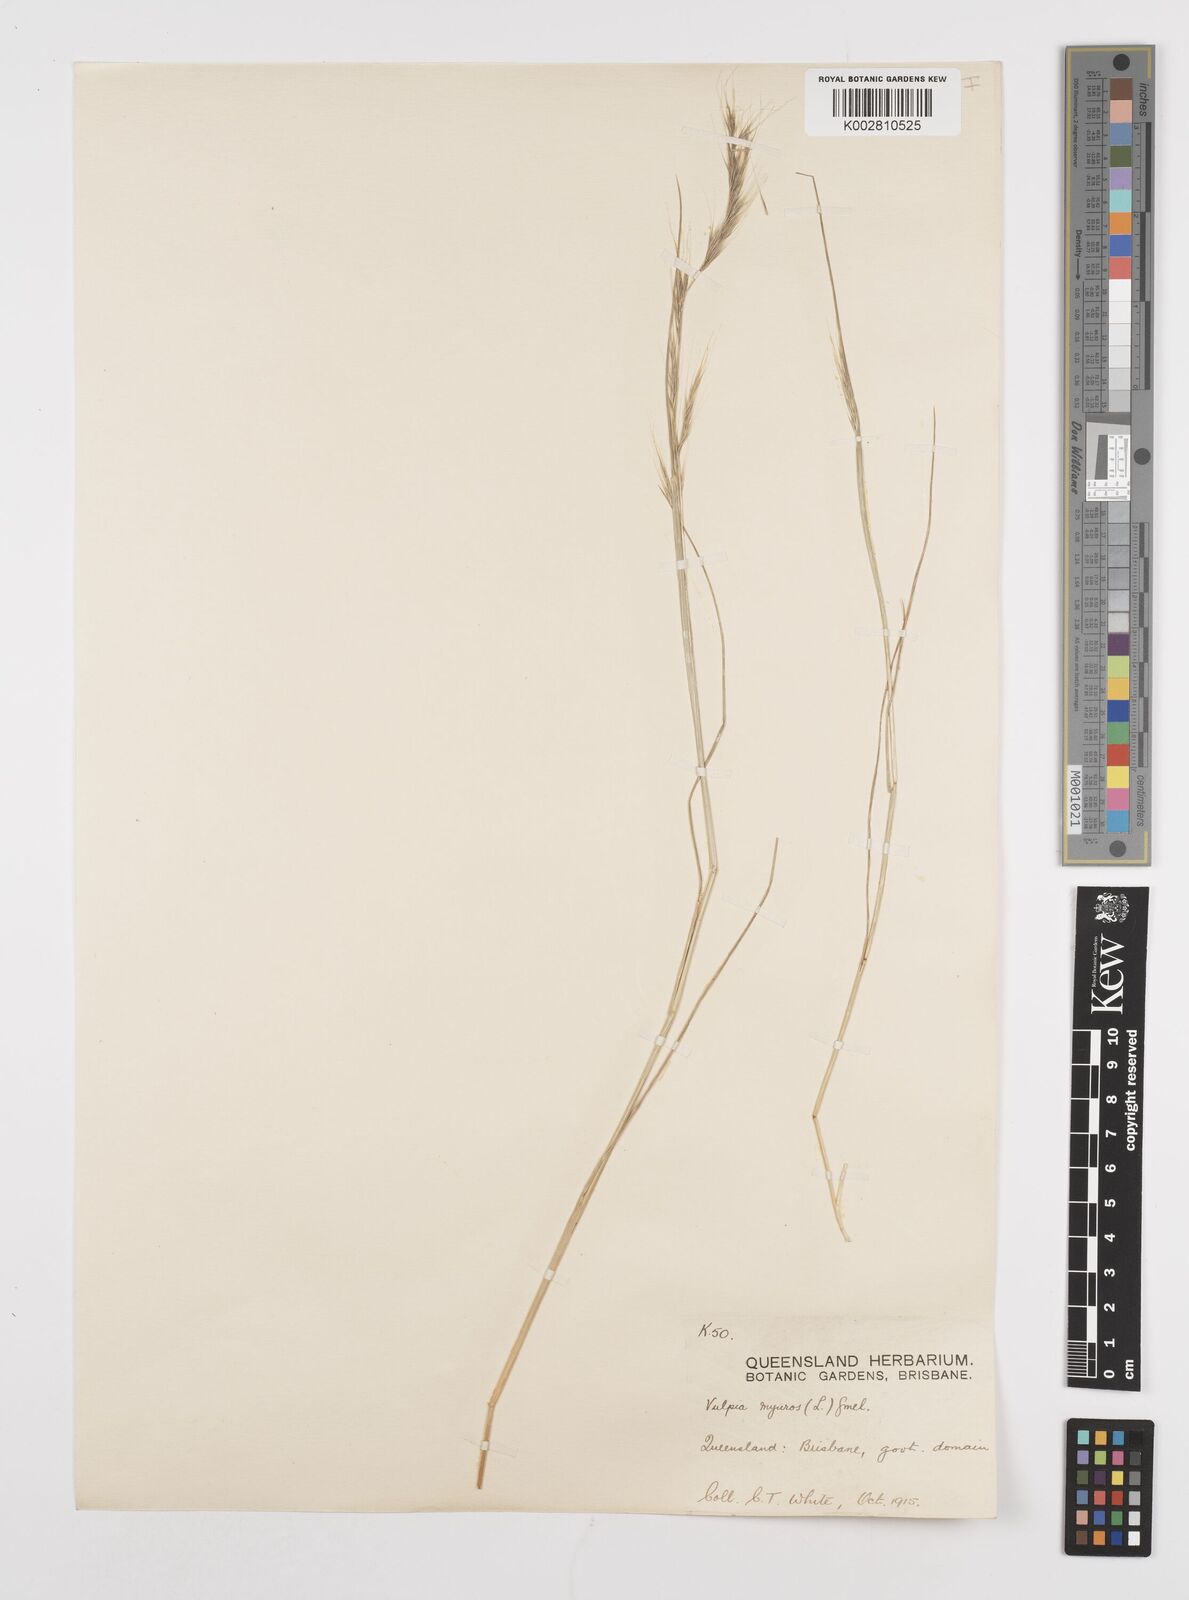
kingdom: Plantae
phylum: Tracheophyta
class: Liliopsida
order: Poales
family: Poaceae
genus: Festuca
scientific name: Festuca myuros
